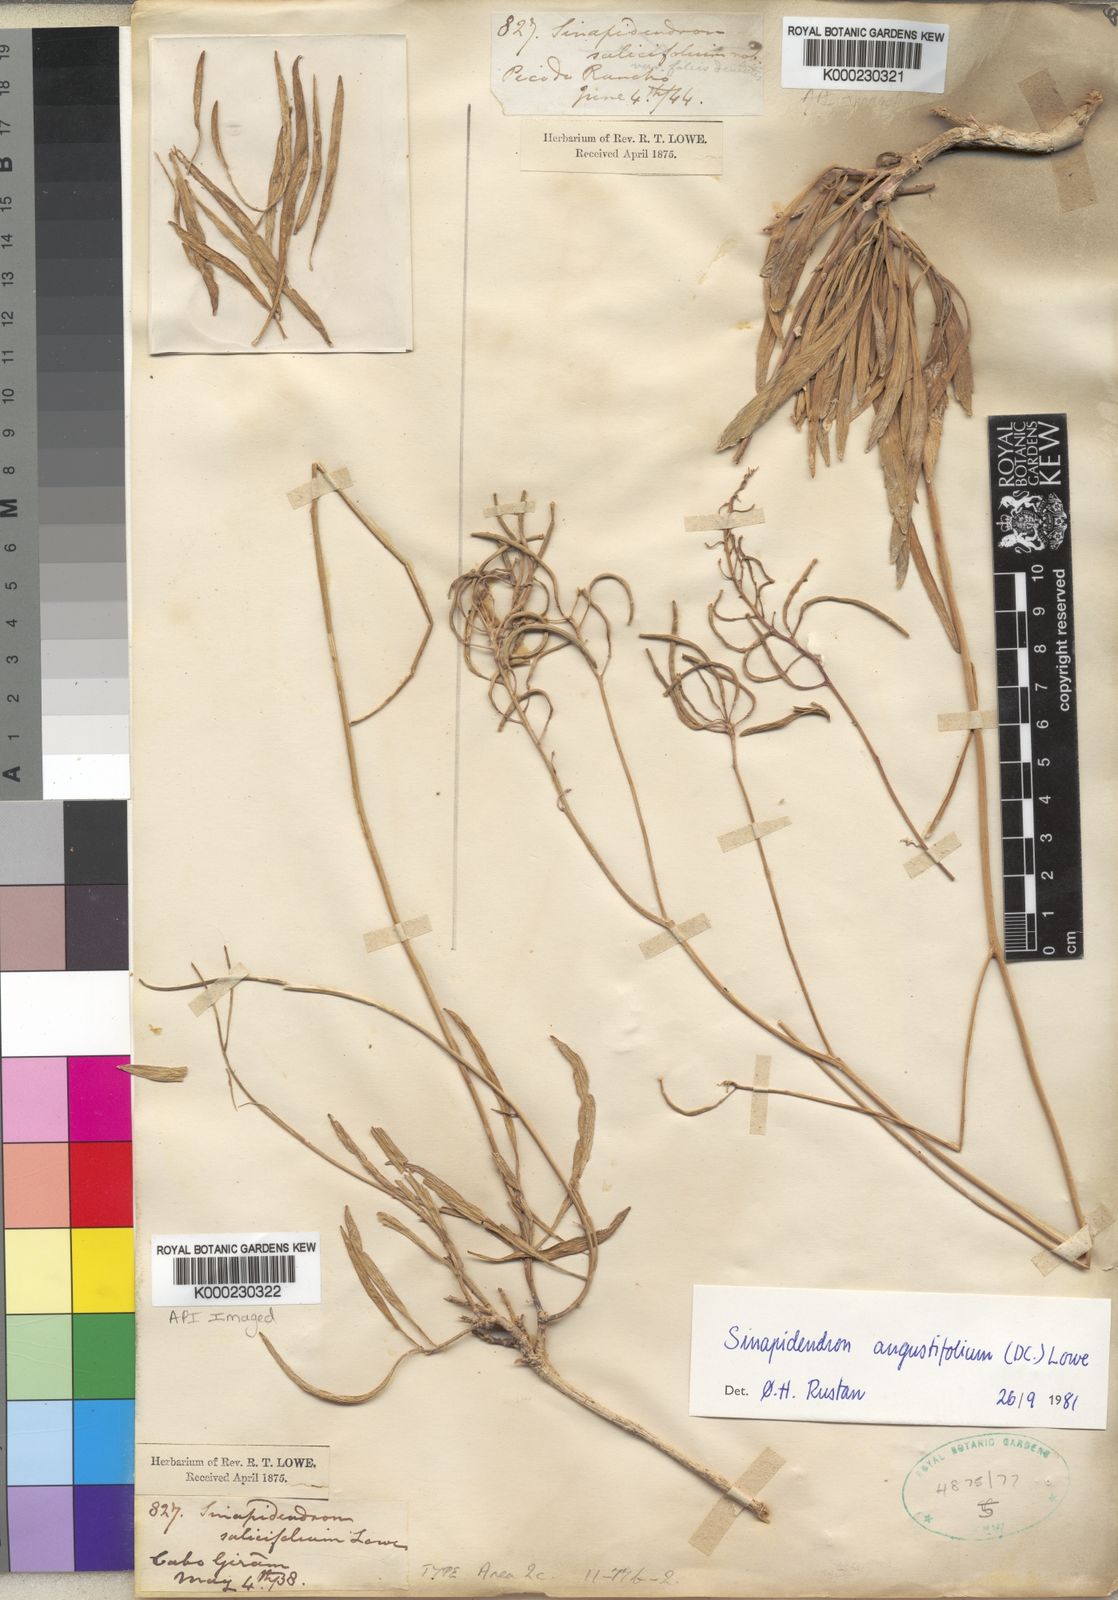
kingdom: Plantae
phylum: Tracheophyta
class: Magnoliopsida
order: Brassicales
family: Brassicaceae
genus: Sinapidendron
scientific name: Sinapidendron angustifolium
